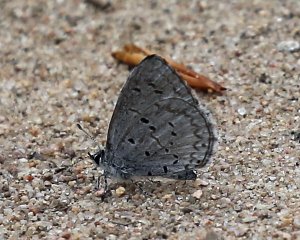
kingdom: Animalia
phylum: Arthropoda
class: Insecta
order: Lepidoptera
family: Lycaenidae
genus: Celastrina
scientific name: Celastrina lucia
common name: Northern Spring Azure
